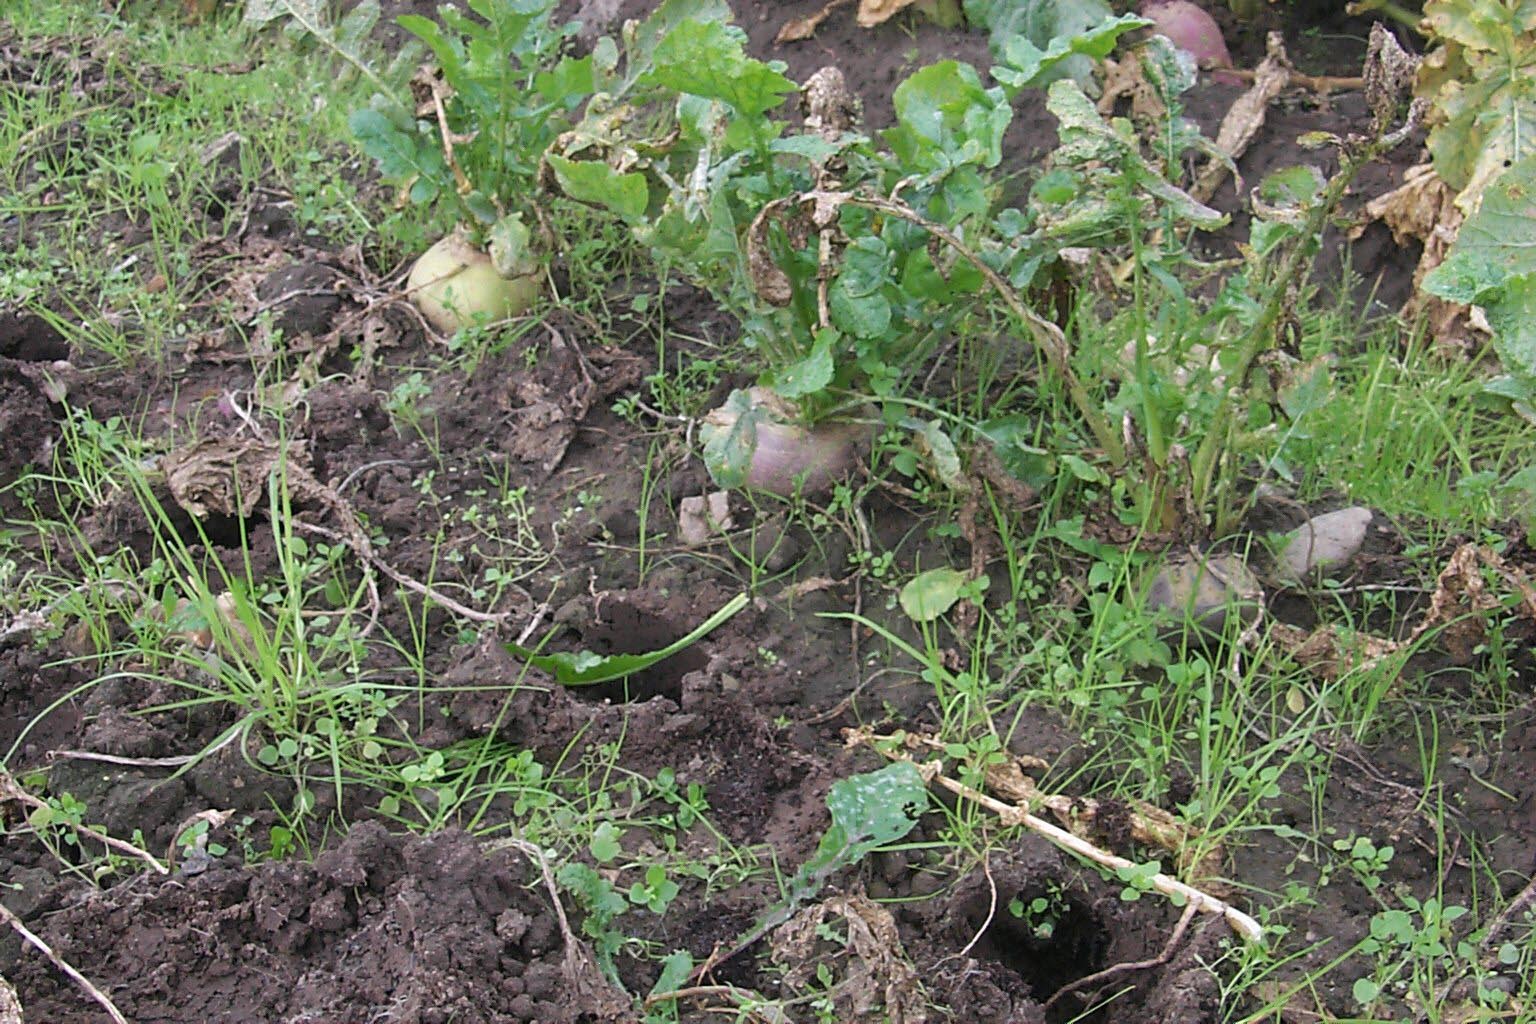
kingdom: Plantae
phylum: Tracheophyta
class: Magnoliopsida
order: Brassicales
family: Brassicaceae
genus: Brassica
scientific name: Brassica rapa
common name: Field mustard
